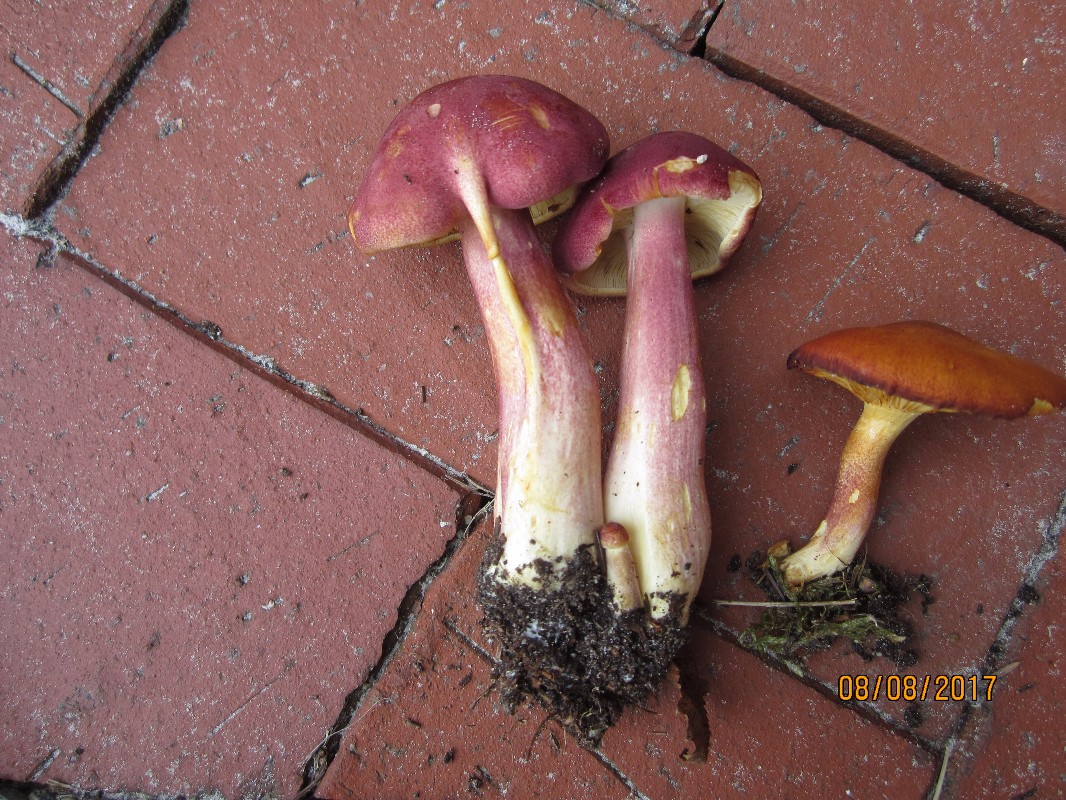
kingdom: Fungi
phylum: Basidiomycota
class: Agaricomycetes
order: Agaricales
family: Tricholomataceae
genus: Tricholomopsis
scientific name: Tricholomopsis rutilans
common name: purpur-væbnerhat
